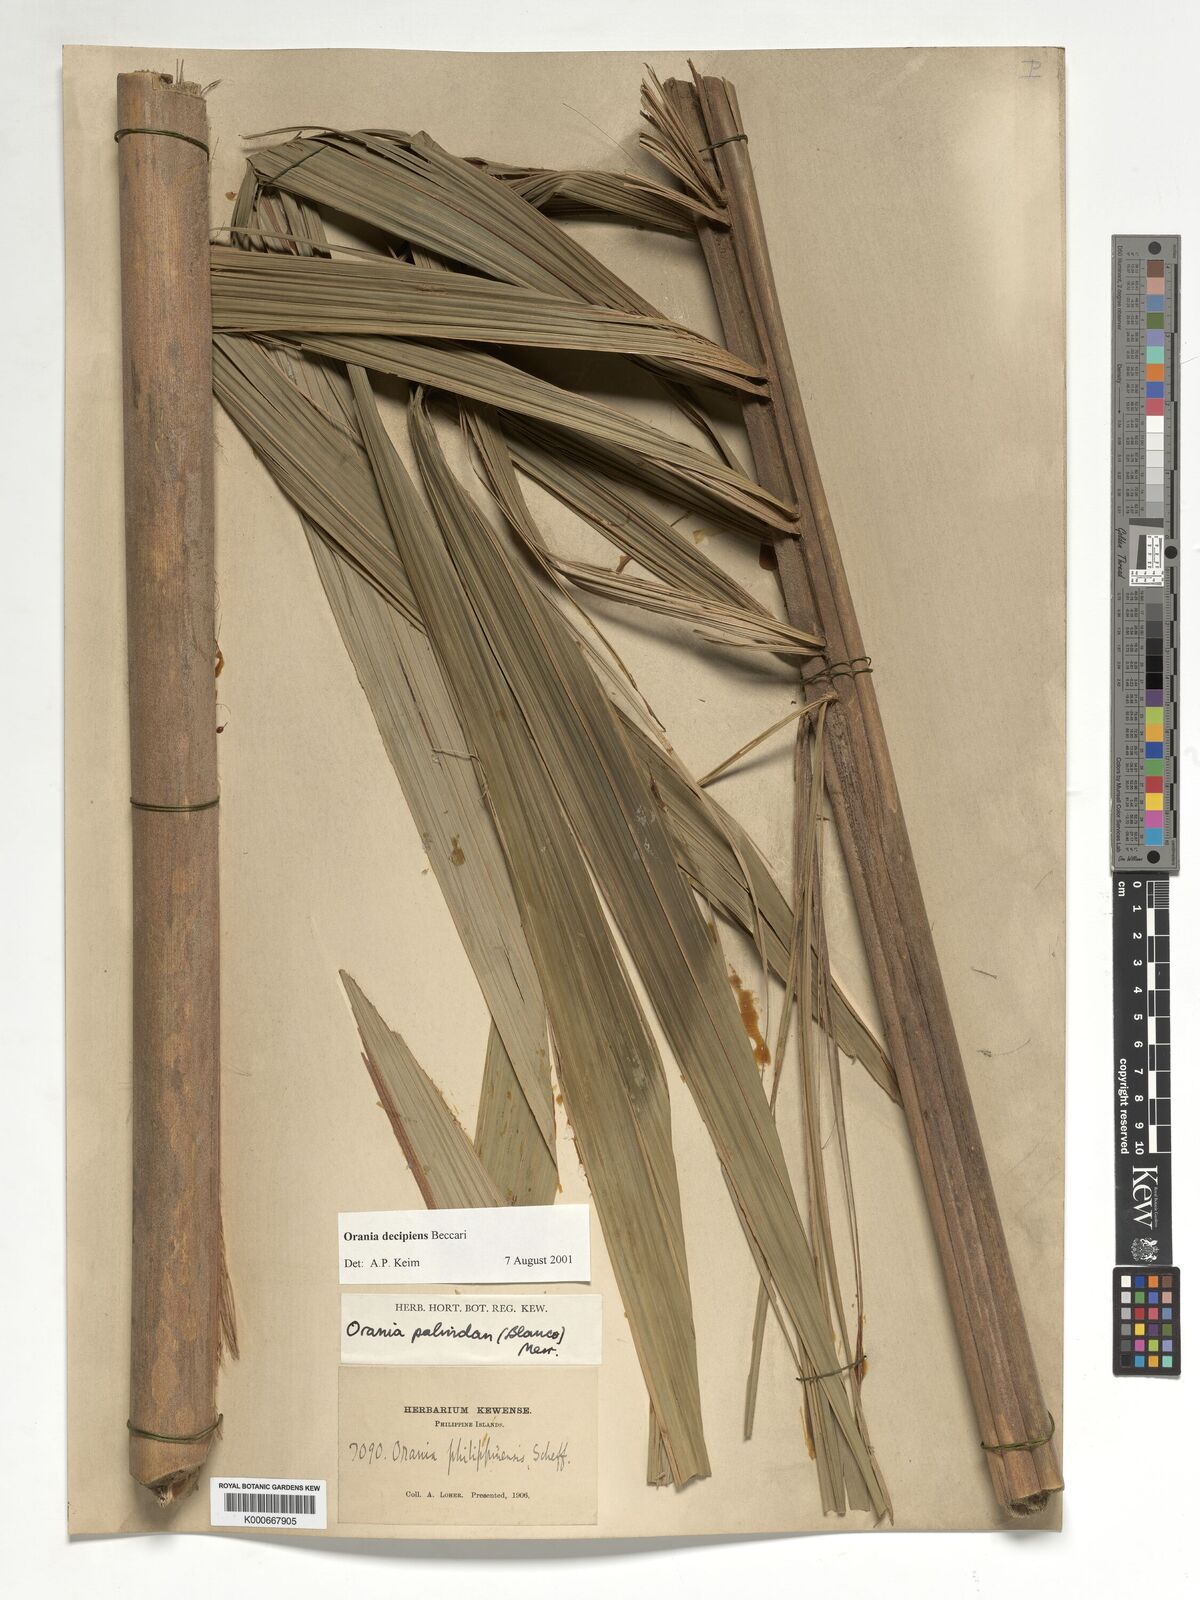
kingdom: Plantae
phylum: Tracheophyta
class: Liliopsida
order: Arecales
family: Arecaceae
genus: Orania
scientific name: Orania decipiens
